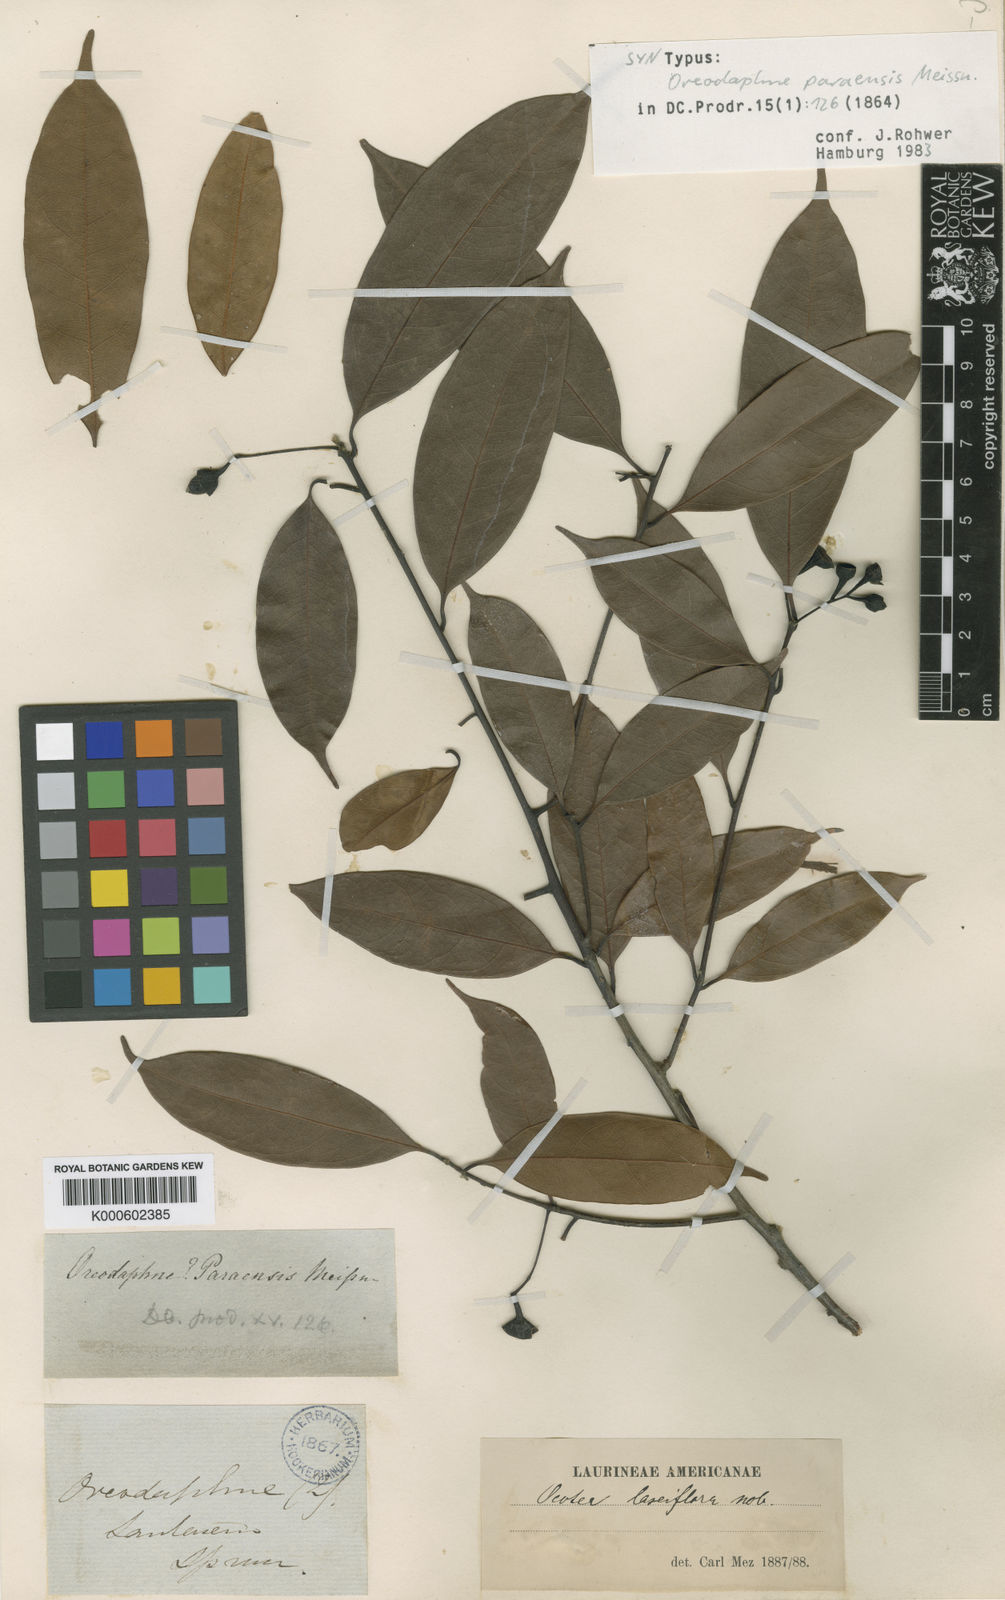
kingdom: Plantae
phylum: Tracheophyta
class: Magnoliopsida
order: Laurales
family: Lauraceae
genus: Ocotea
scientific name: Ocotea puberula
